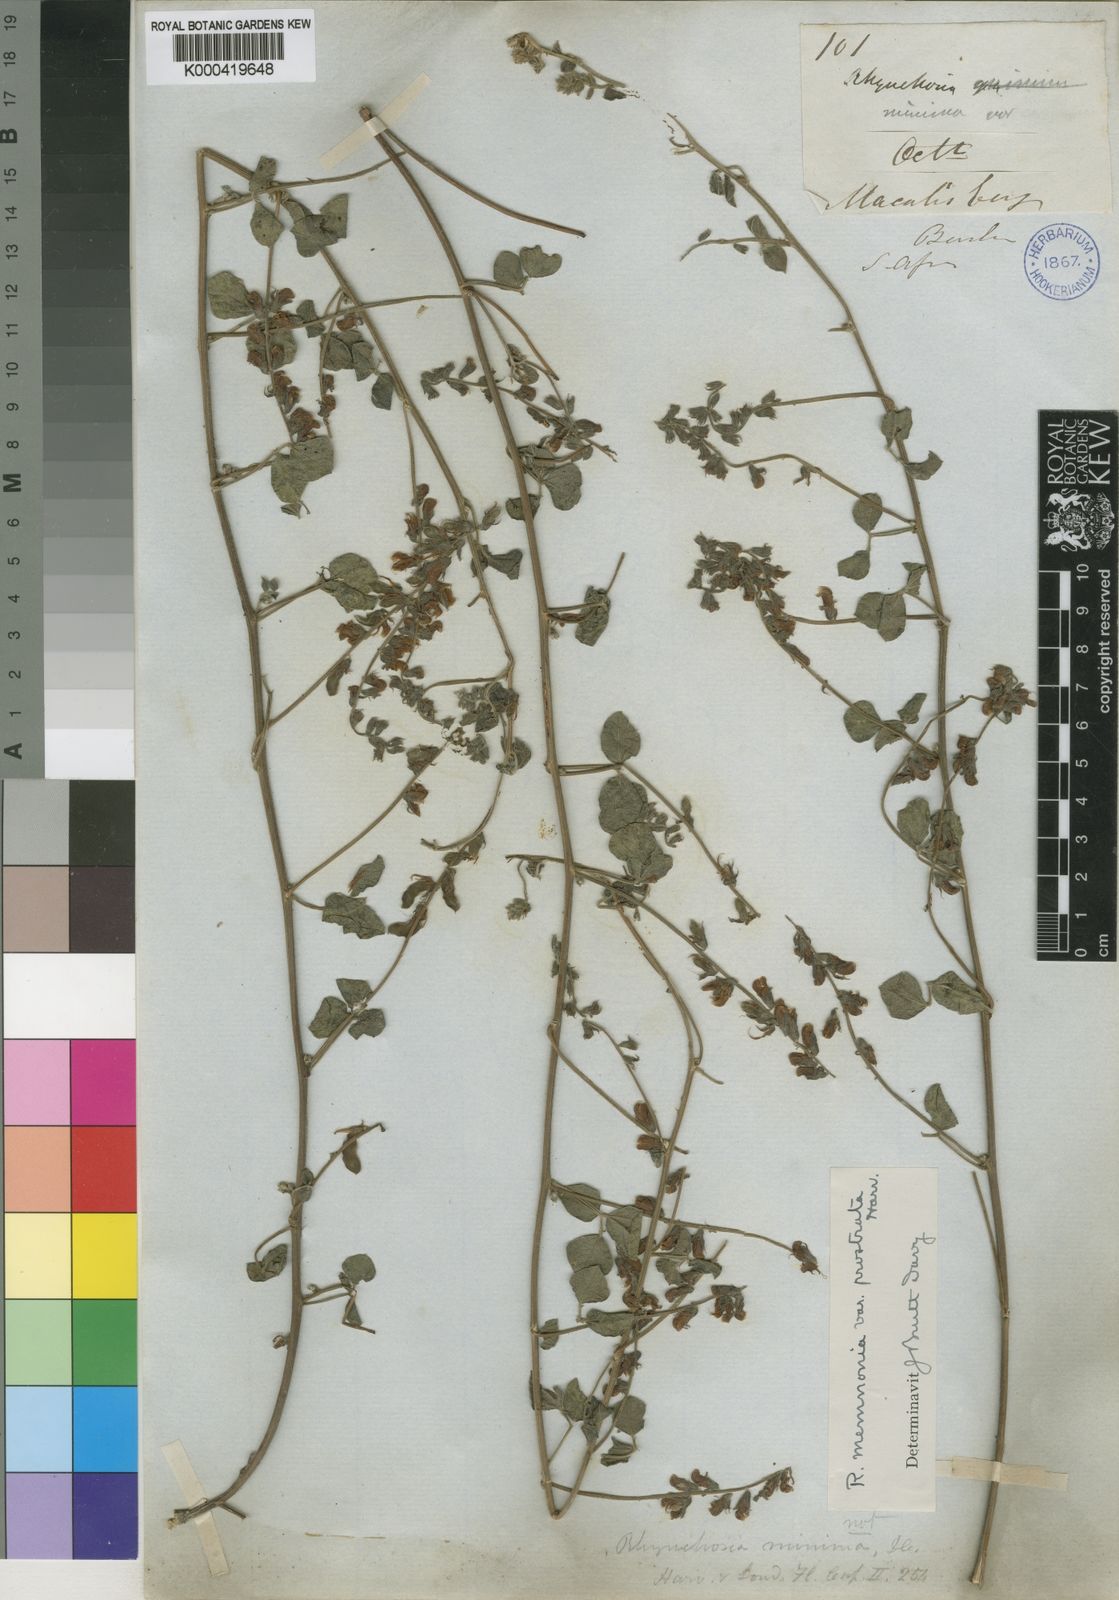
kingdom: Plantae
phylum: Tracheophyta
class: Magnoliopsida
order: Fabales
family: Fabaceae
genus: Rhynchosia
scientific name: Rhynchosia minima
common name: Least snoutbean
